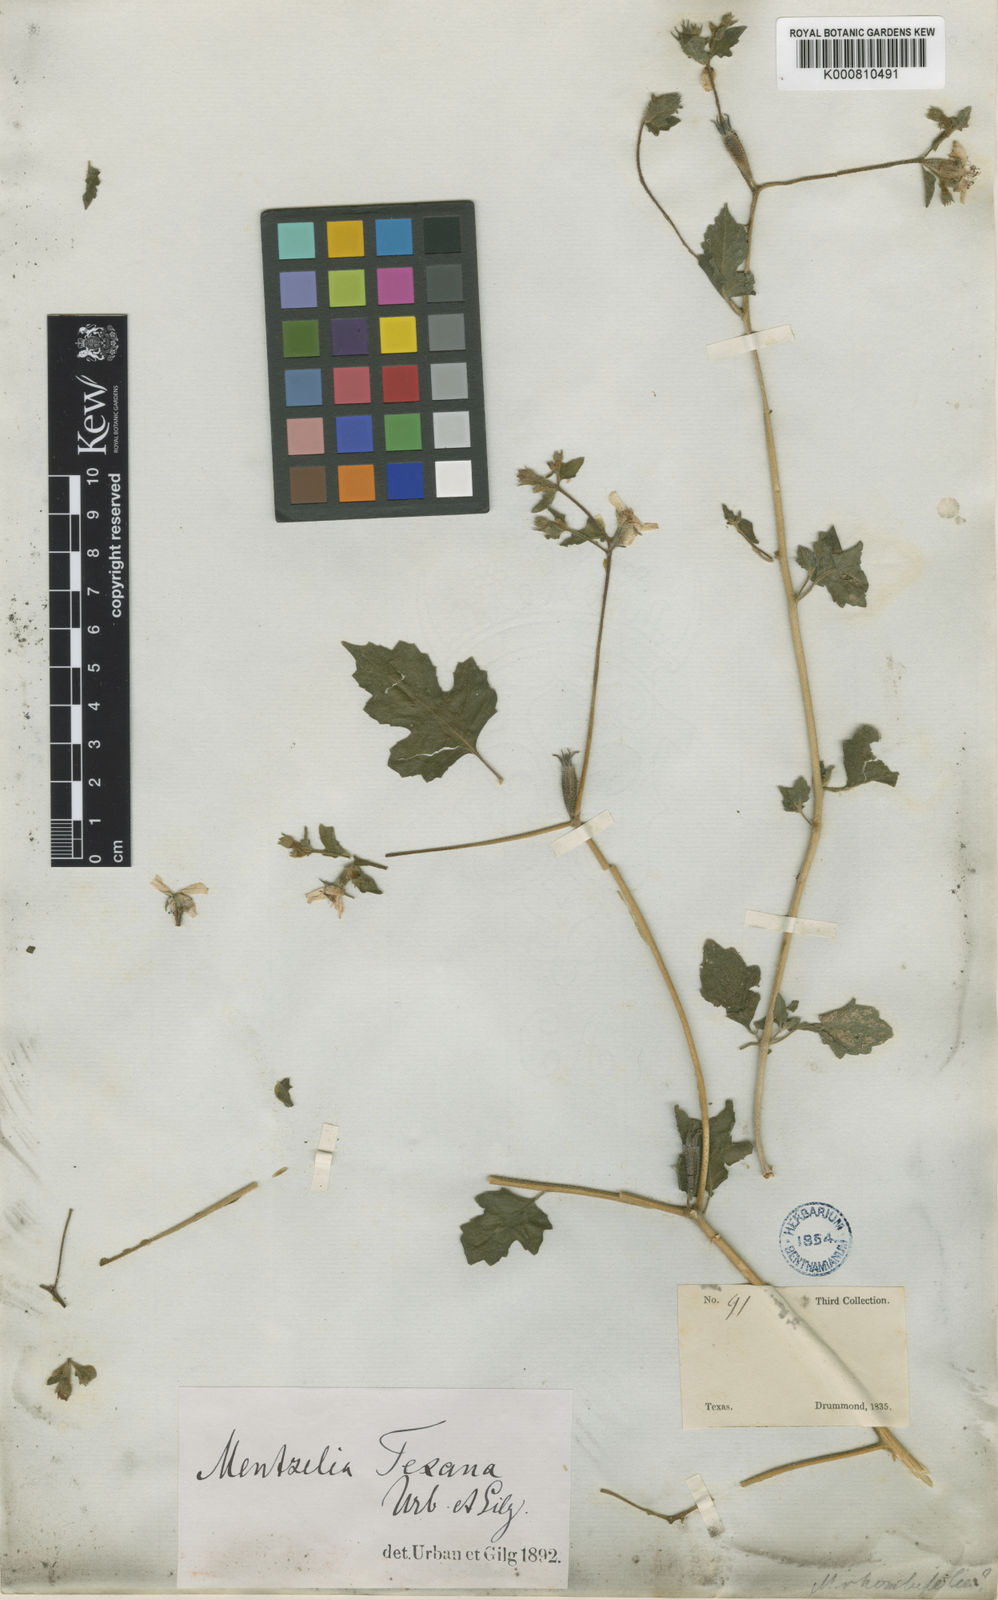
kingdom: Plantae
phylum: Tracheophyta
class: Magnoliopsida
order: Cornales
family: Loasaceae
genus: Mentzelia
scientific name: Mentzelia texana
